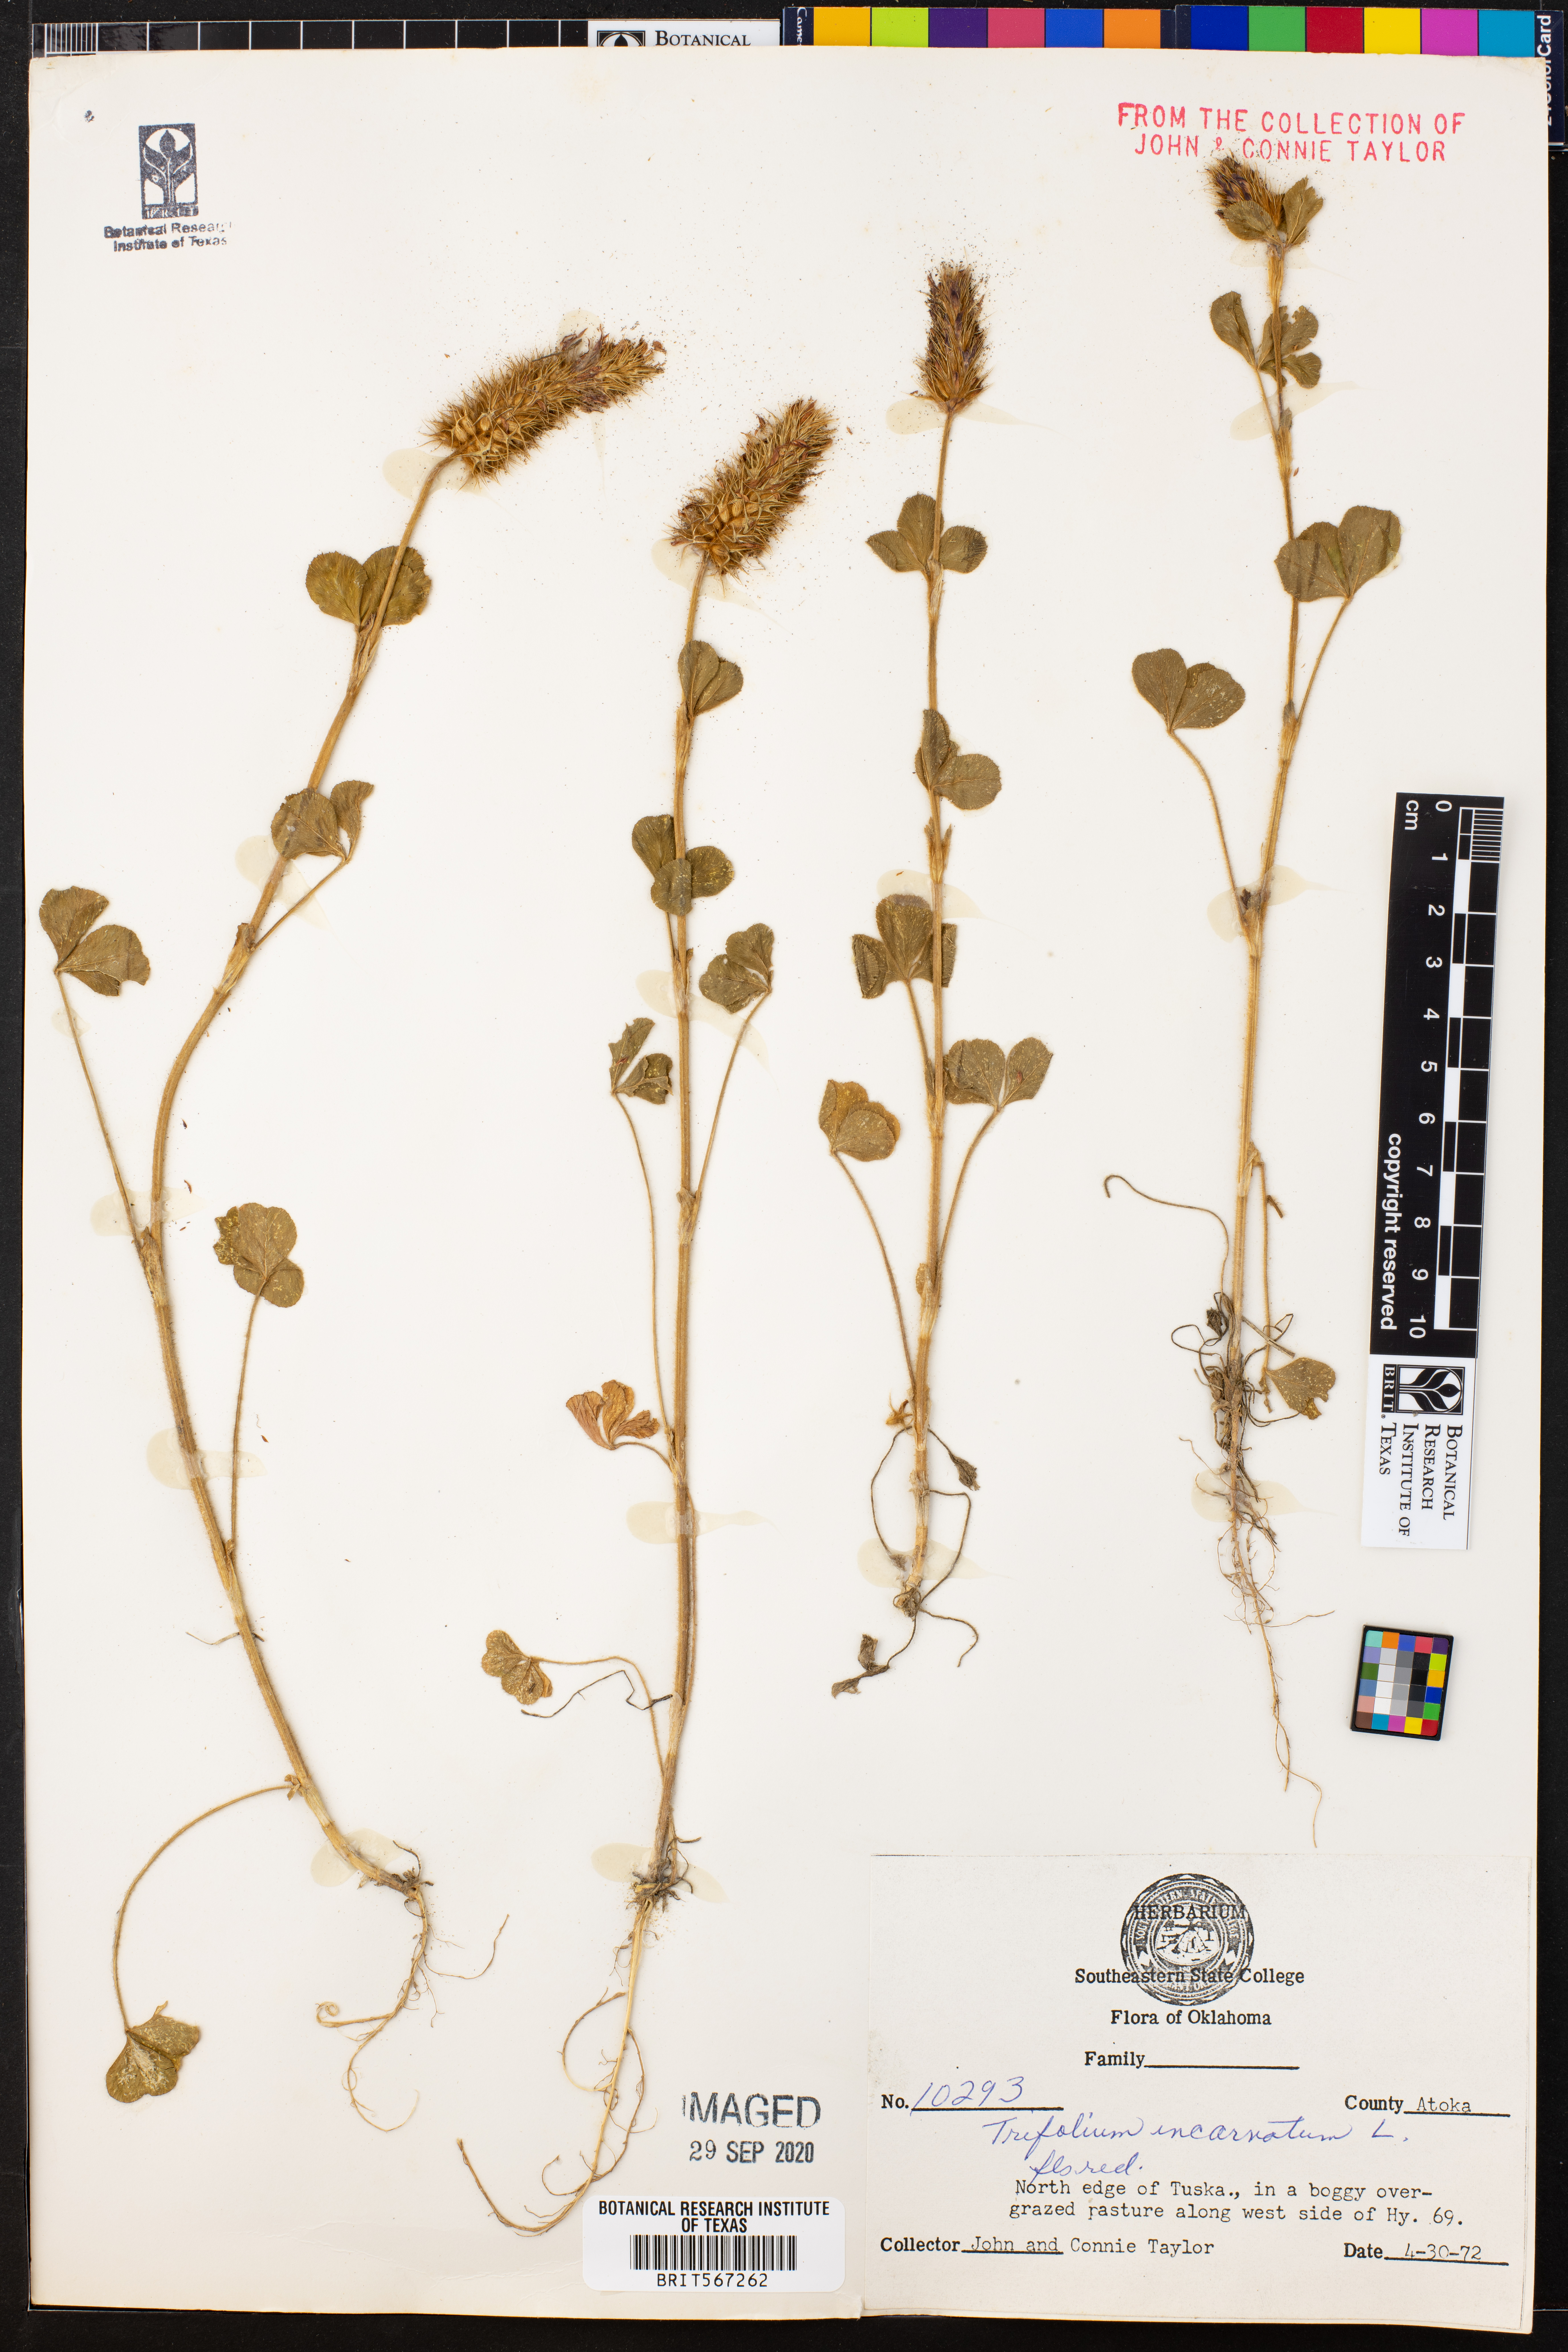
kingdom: Plantae
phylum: Tracheophyta
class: Magnoliopsida
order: Fabales
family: Fabaceae
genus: Trifolium
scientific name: Trifolium incarnatum
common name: Crimson clover
